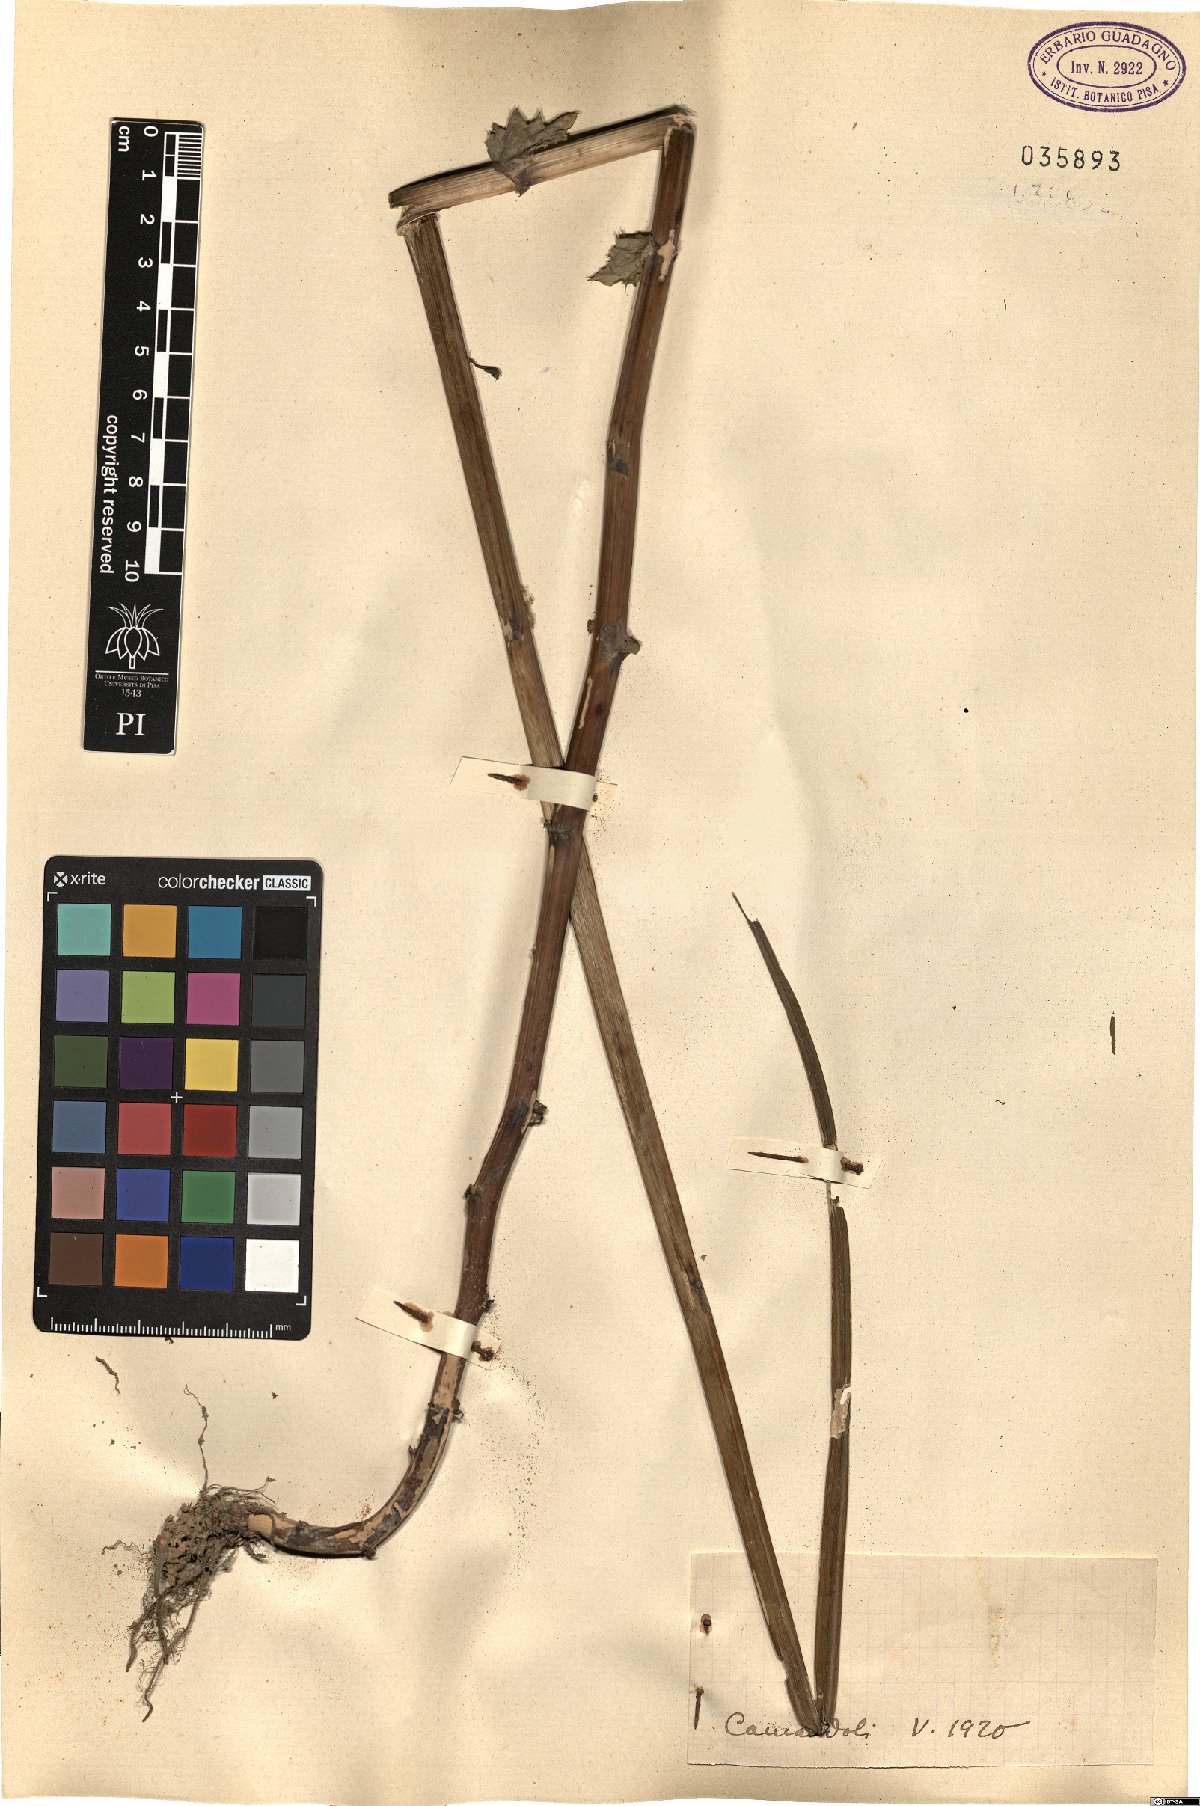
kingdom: Plantae
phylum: Tracheophyta
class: Magnoliopsida
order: Asterales
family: Asteraceae
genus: Lactuca
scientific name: Lactuca
